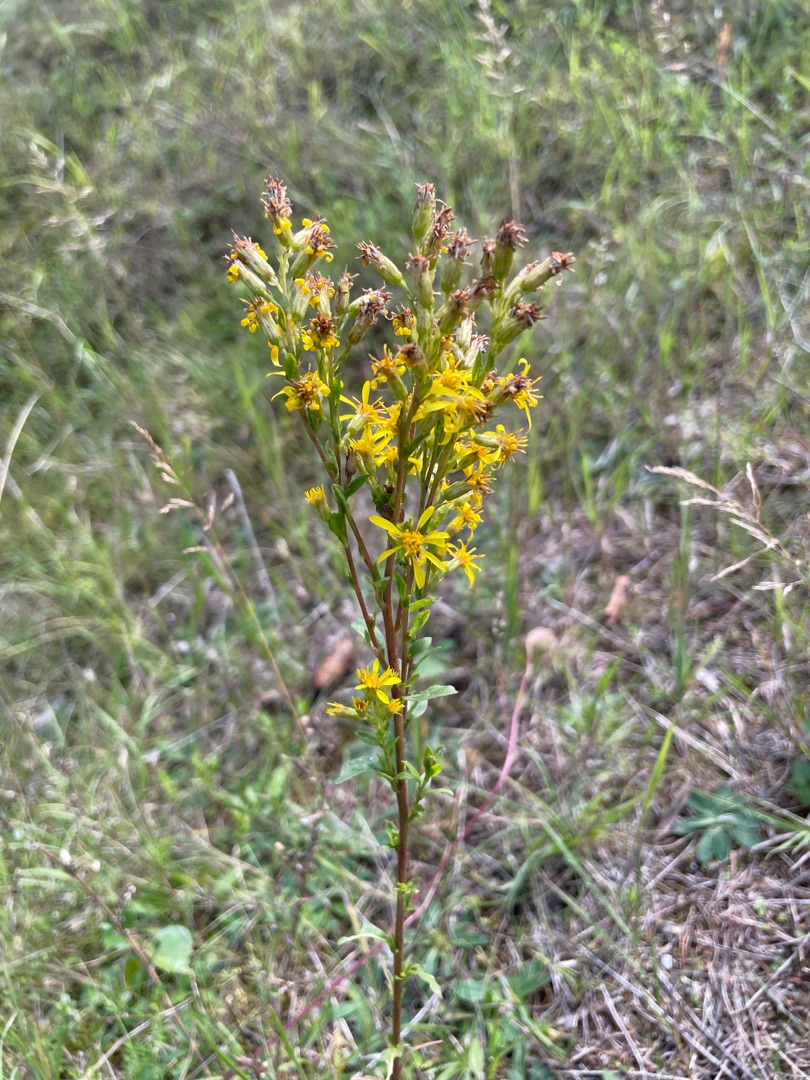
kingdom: Plantae
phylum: Tracheophyta
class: Magnoliopsida
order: Asterales
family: Asteraceae
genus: Solidago
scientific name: Solidago virgaurea
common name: Almindelig gyldenris
